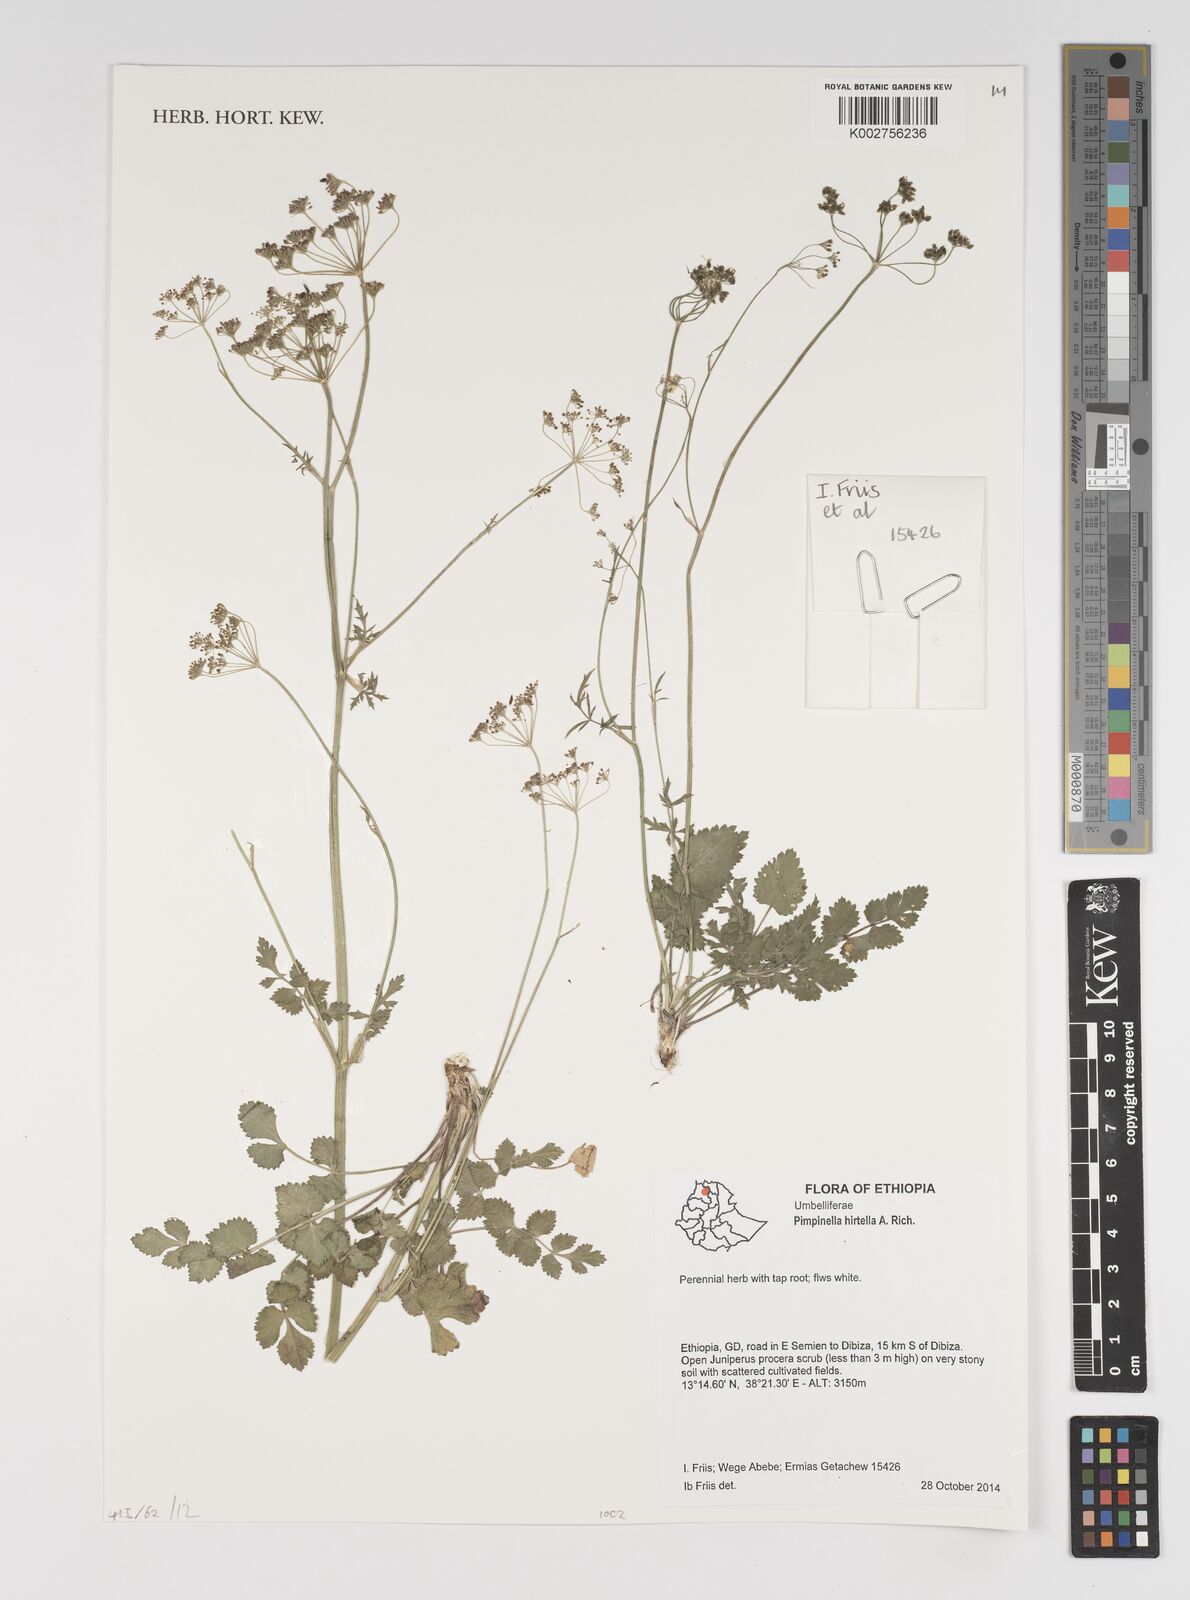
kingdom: Plantae
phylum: Tracheophyta
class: Magnoliopsida
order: Apiales
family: Apiaceae
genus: Pimpinella
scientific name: Pimpinella hirtella
